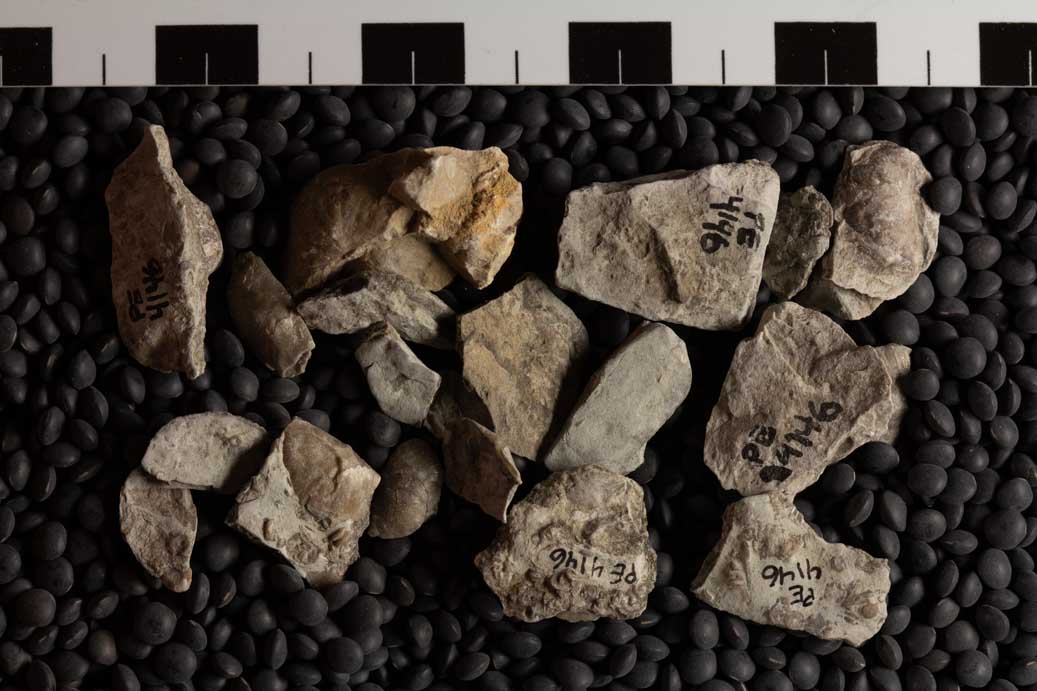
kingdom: Animalia
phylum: Brachiopoda
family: Sowerbyellidae
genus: Sowerbyella
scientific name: Sowerbyella
